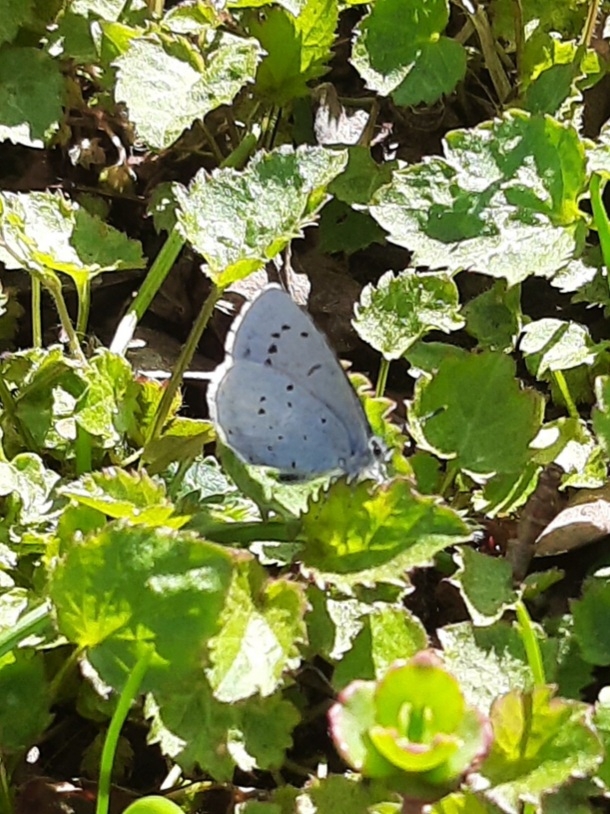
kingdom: Animalia
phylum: Arthropoda
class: Insecta
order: Lepidoptera
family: Lycaenidae
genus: Celastrina
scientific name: Celastrina argiolus
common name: Skovblåfugl
